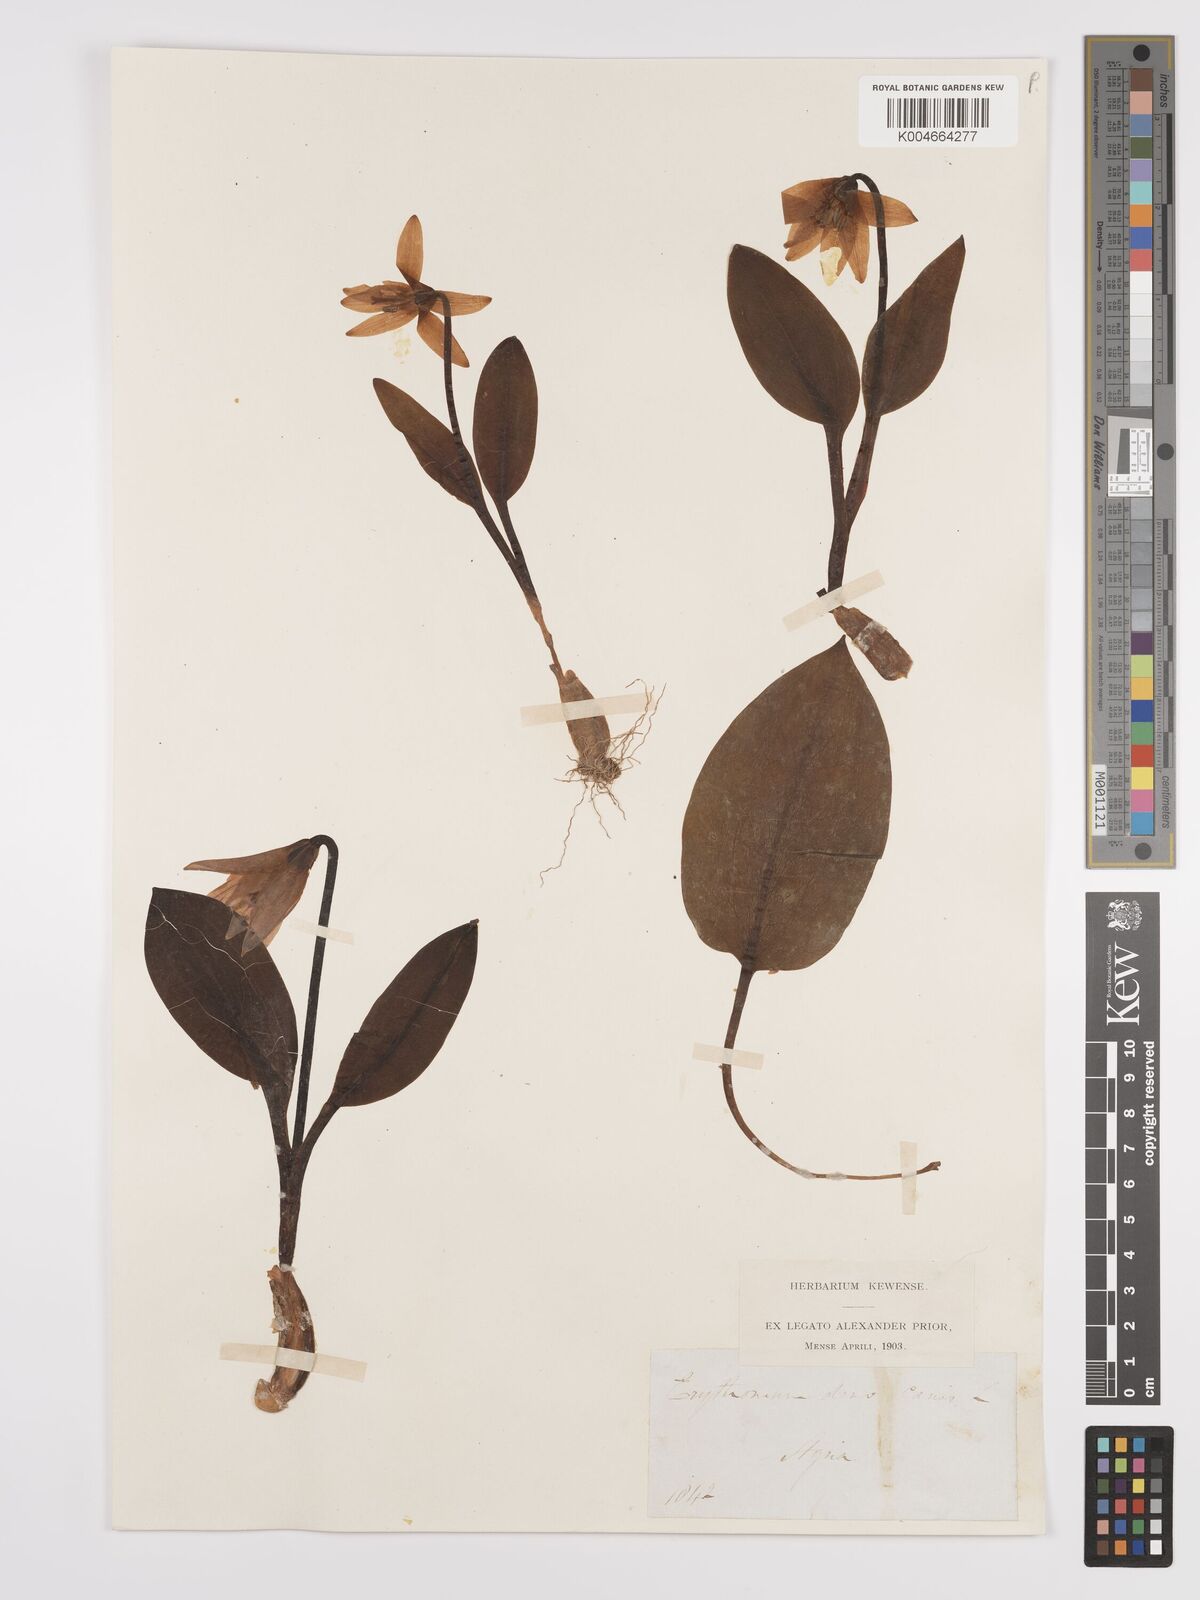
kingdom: Plantae
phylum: Tracheophyta
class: Liliopsida
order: Liliales
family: Liliaceae
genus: Erythronium
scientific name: Erythronium dens-canis
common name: Dog's-tooth-violet
